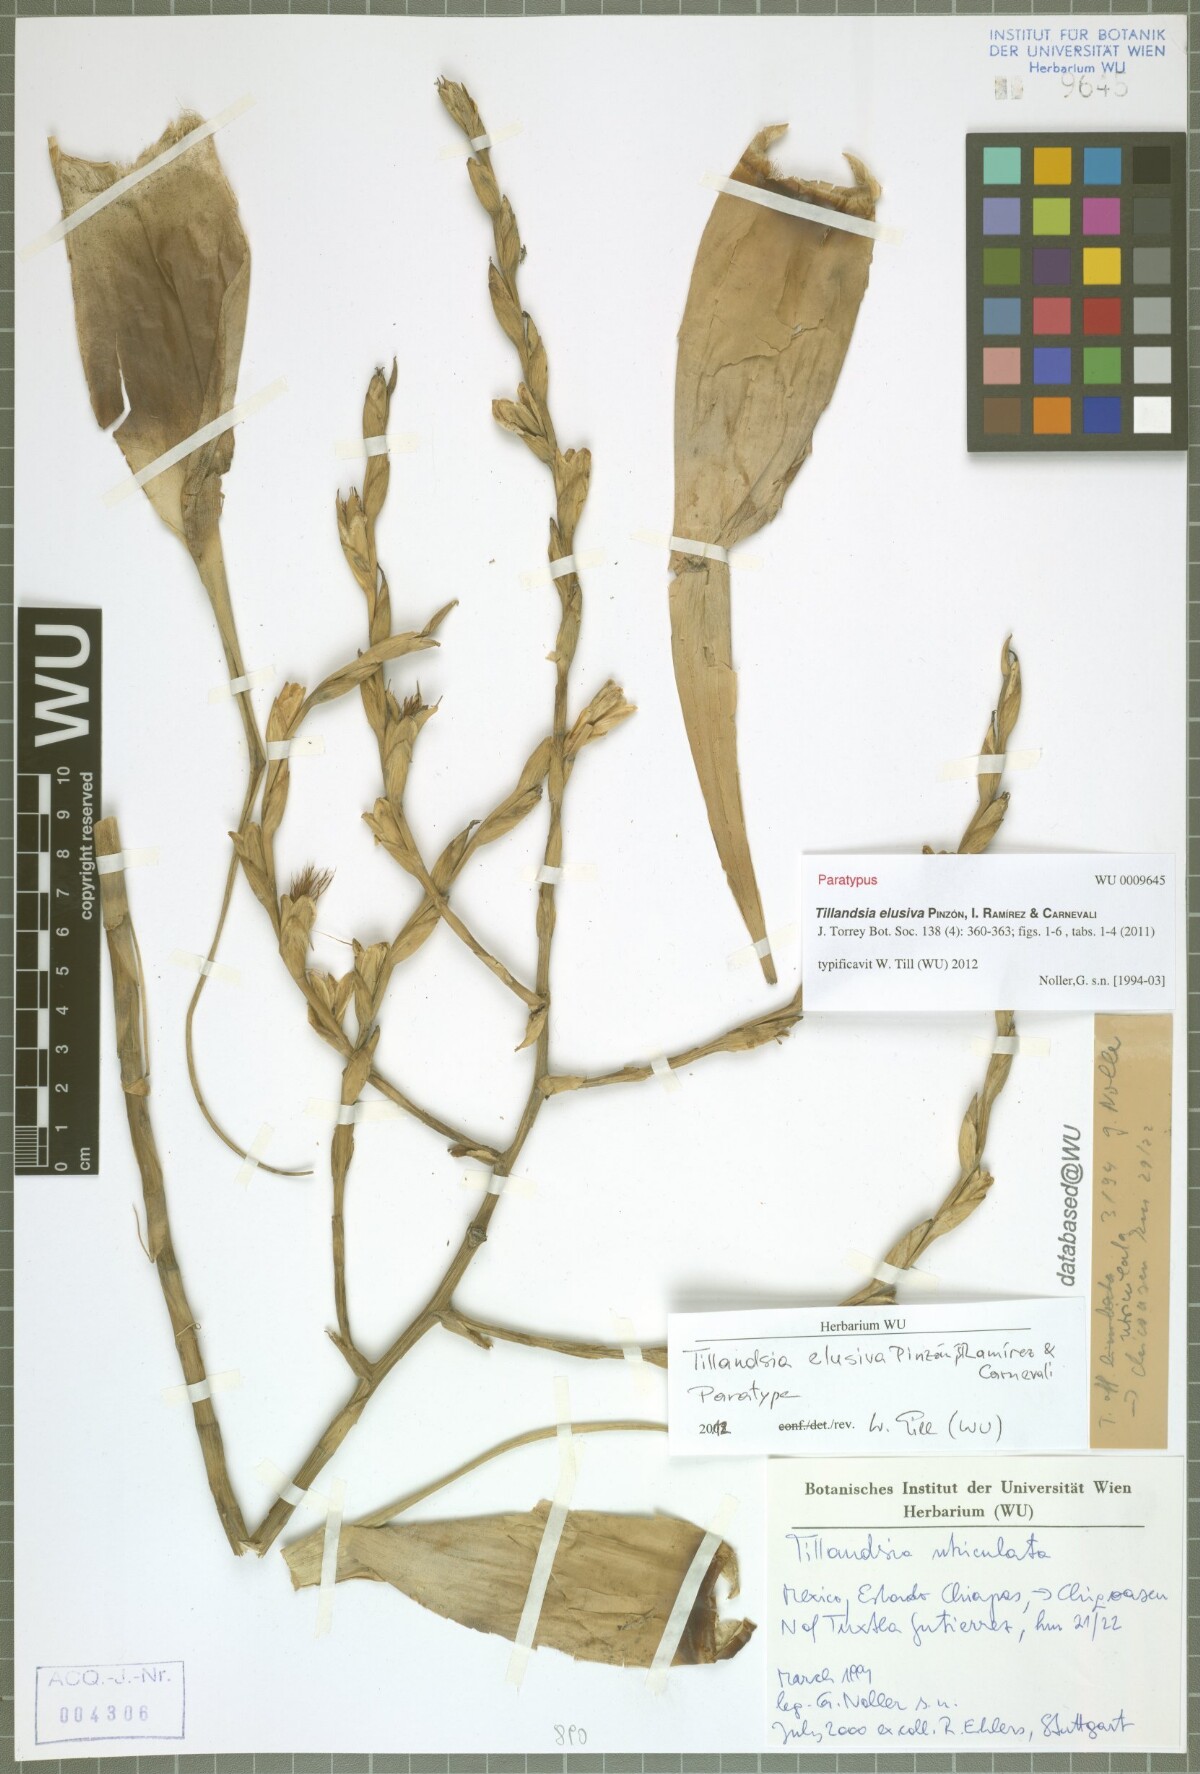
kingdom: Plantae
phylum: Tracheophyta
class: Liliopsida
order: Poales
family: Bromeliaceae
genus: Tillandsia
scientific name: Tillandsia elusiva
